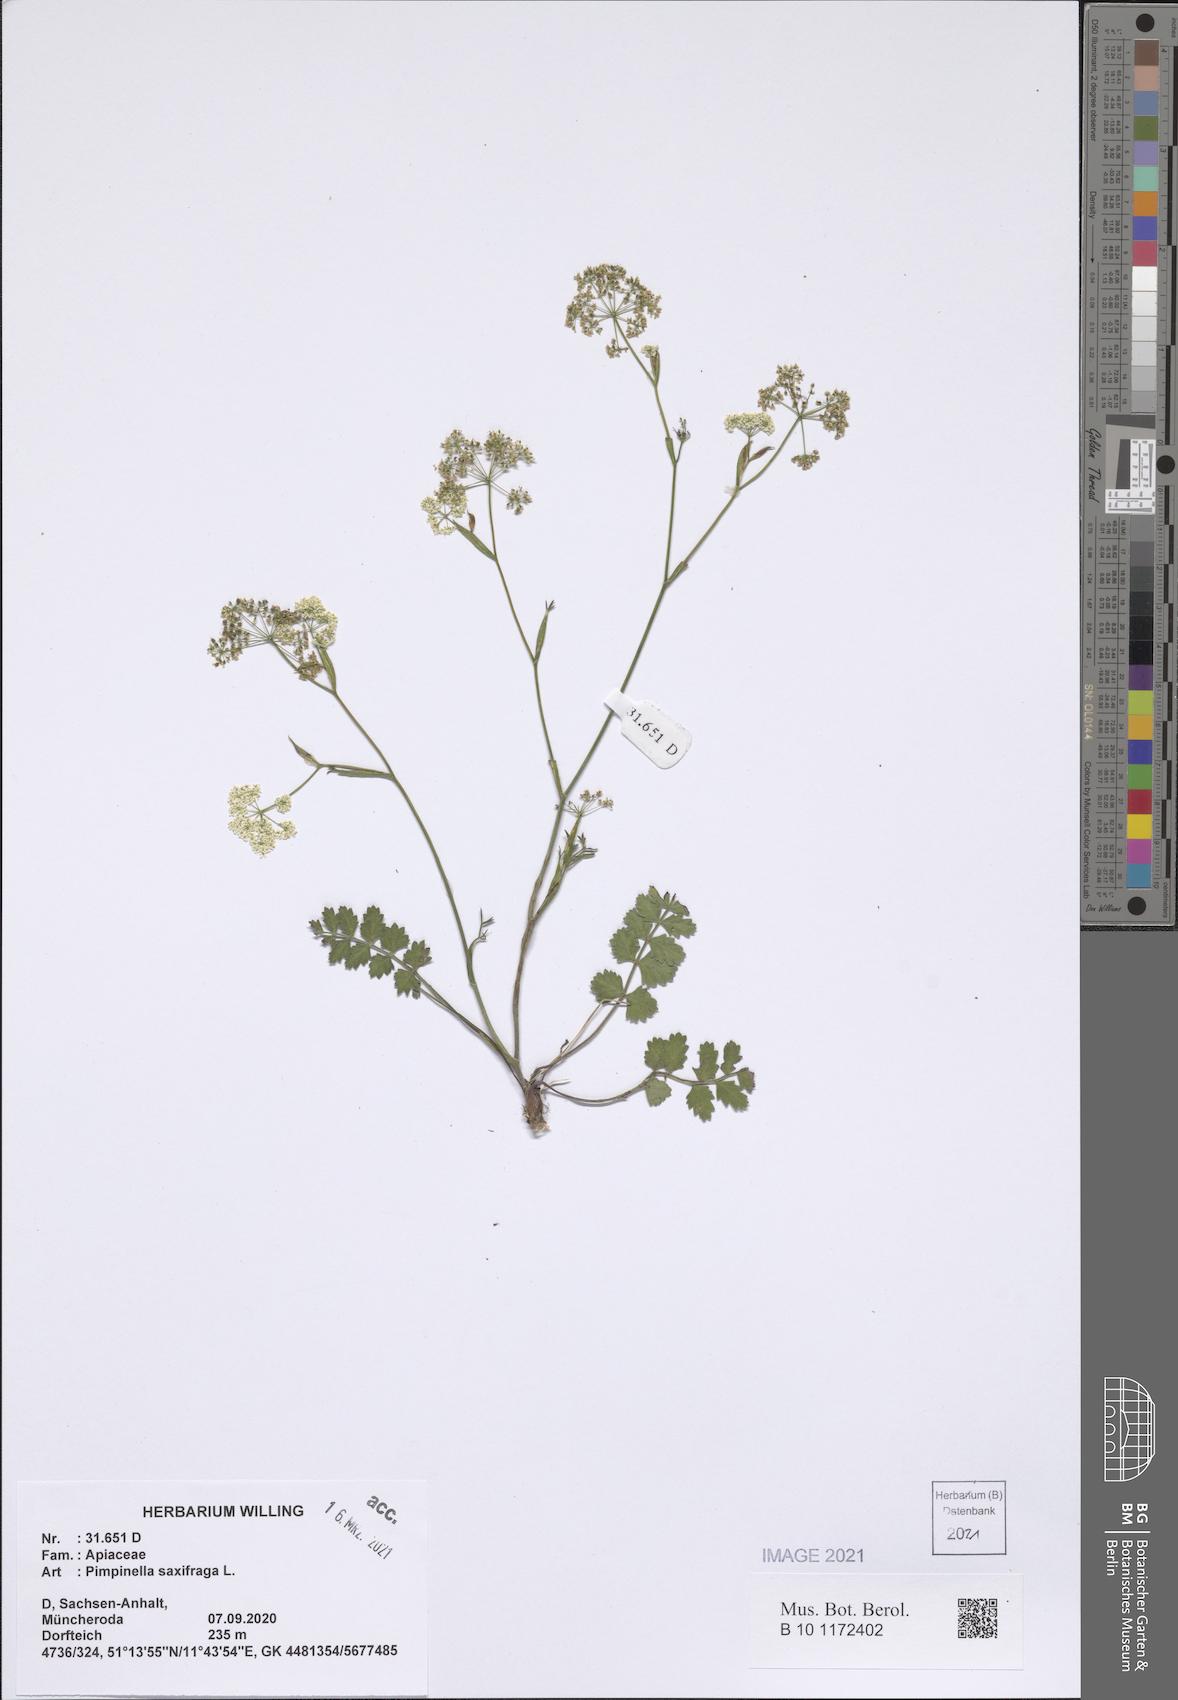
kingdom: Plantae
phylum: Tracheophyta
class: Magnoliopsida
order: Apiales
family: Apiaceae
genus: Pimpinella
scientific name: Pimpinella saxifraga
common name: Burnet-saxifrage
